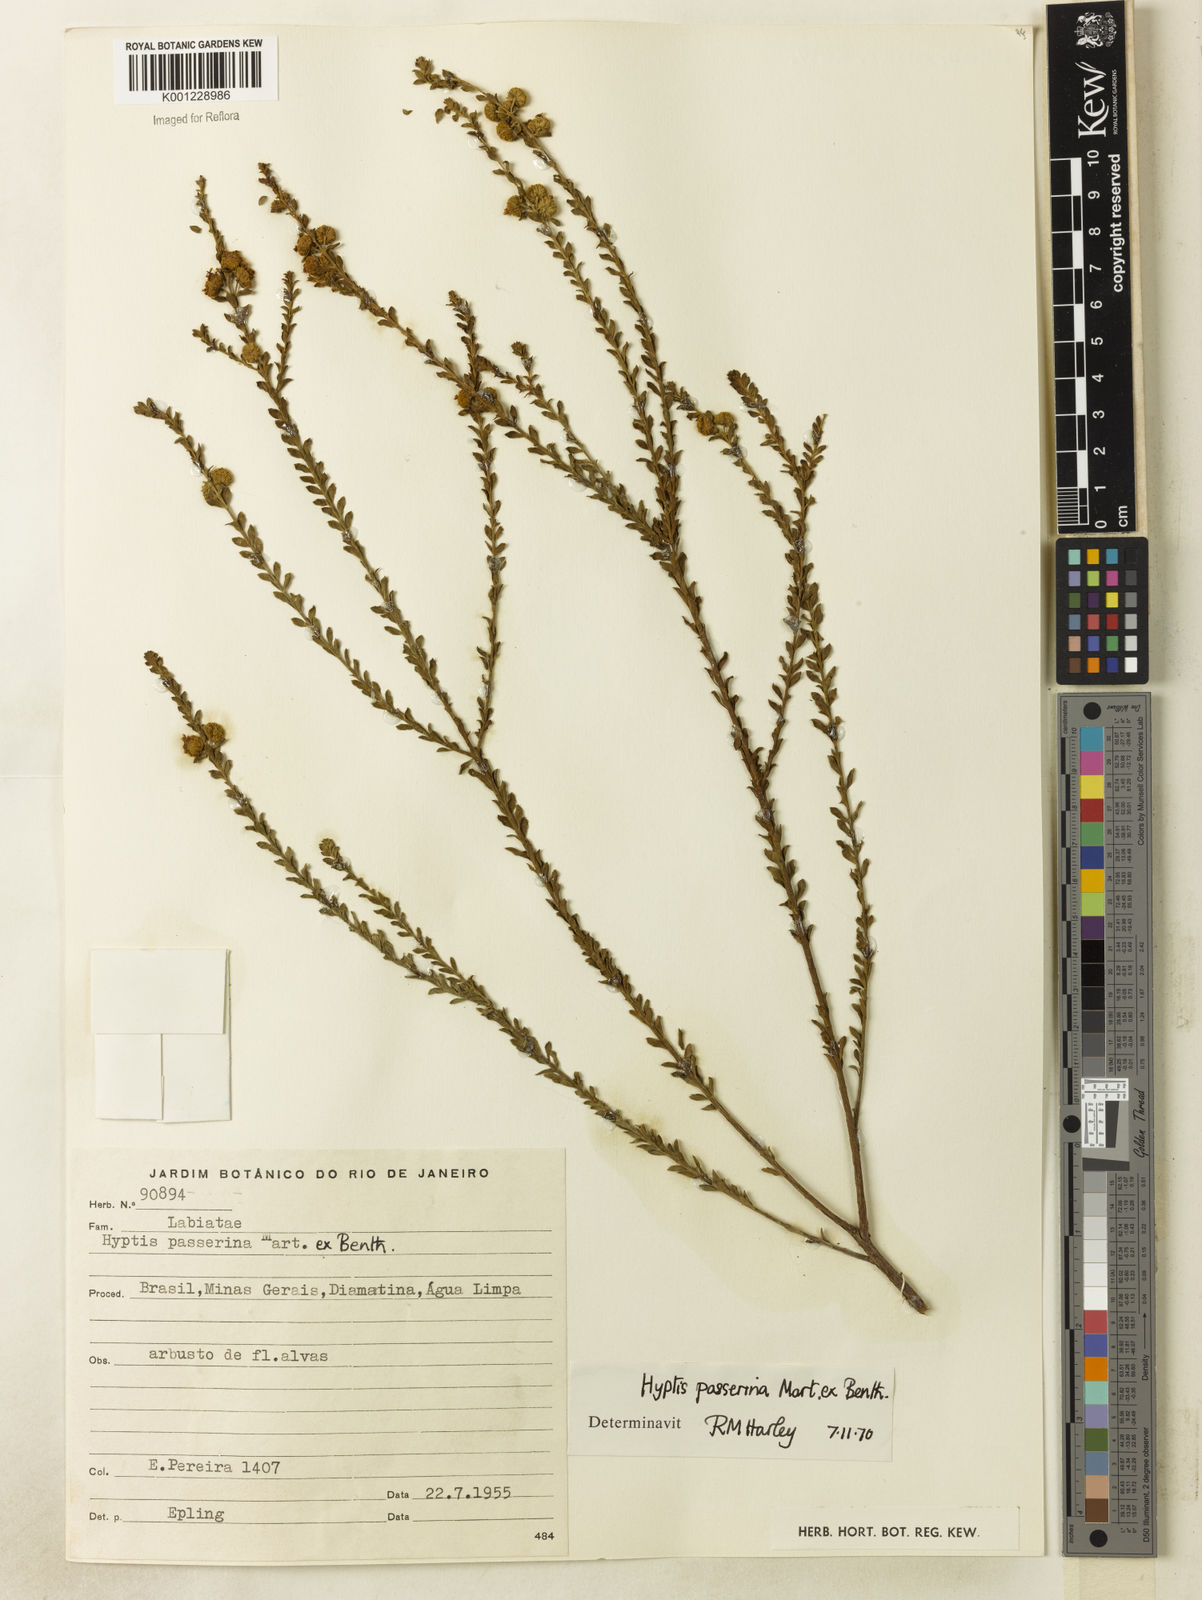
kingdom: Plantae
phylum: Tracheophyta
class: Magnoliopsida
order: Lamiales
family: Lamiaceae
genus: Hyptis
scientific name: Hyptis passerina
